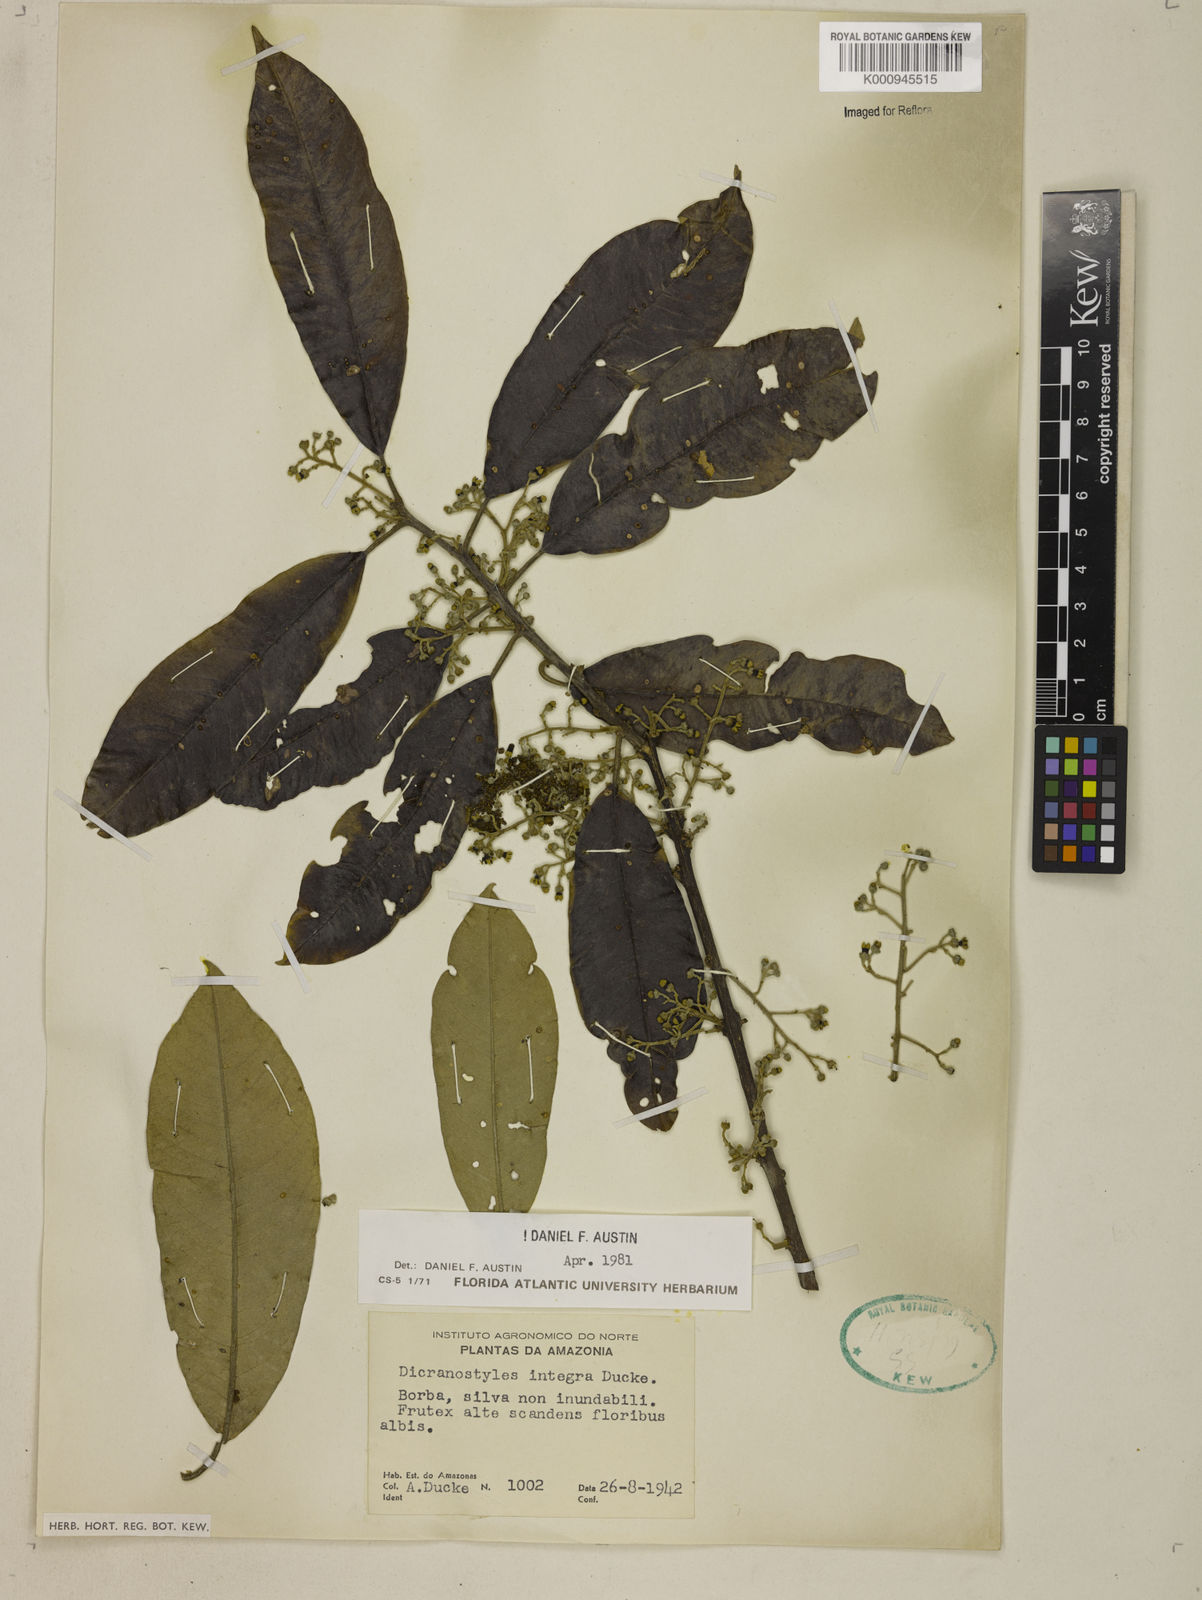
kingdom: Plantae
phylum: Tracheophyta
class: Magnoliopsida
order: Solanales
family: Convolvulaceae
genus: Dicranostyles
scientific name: Dicranostyles integra
